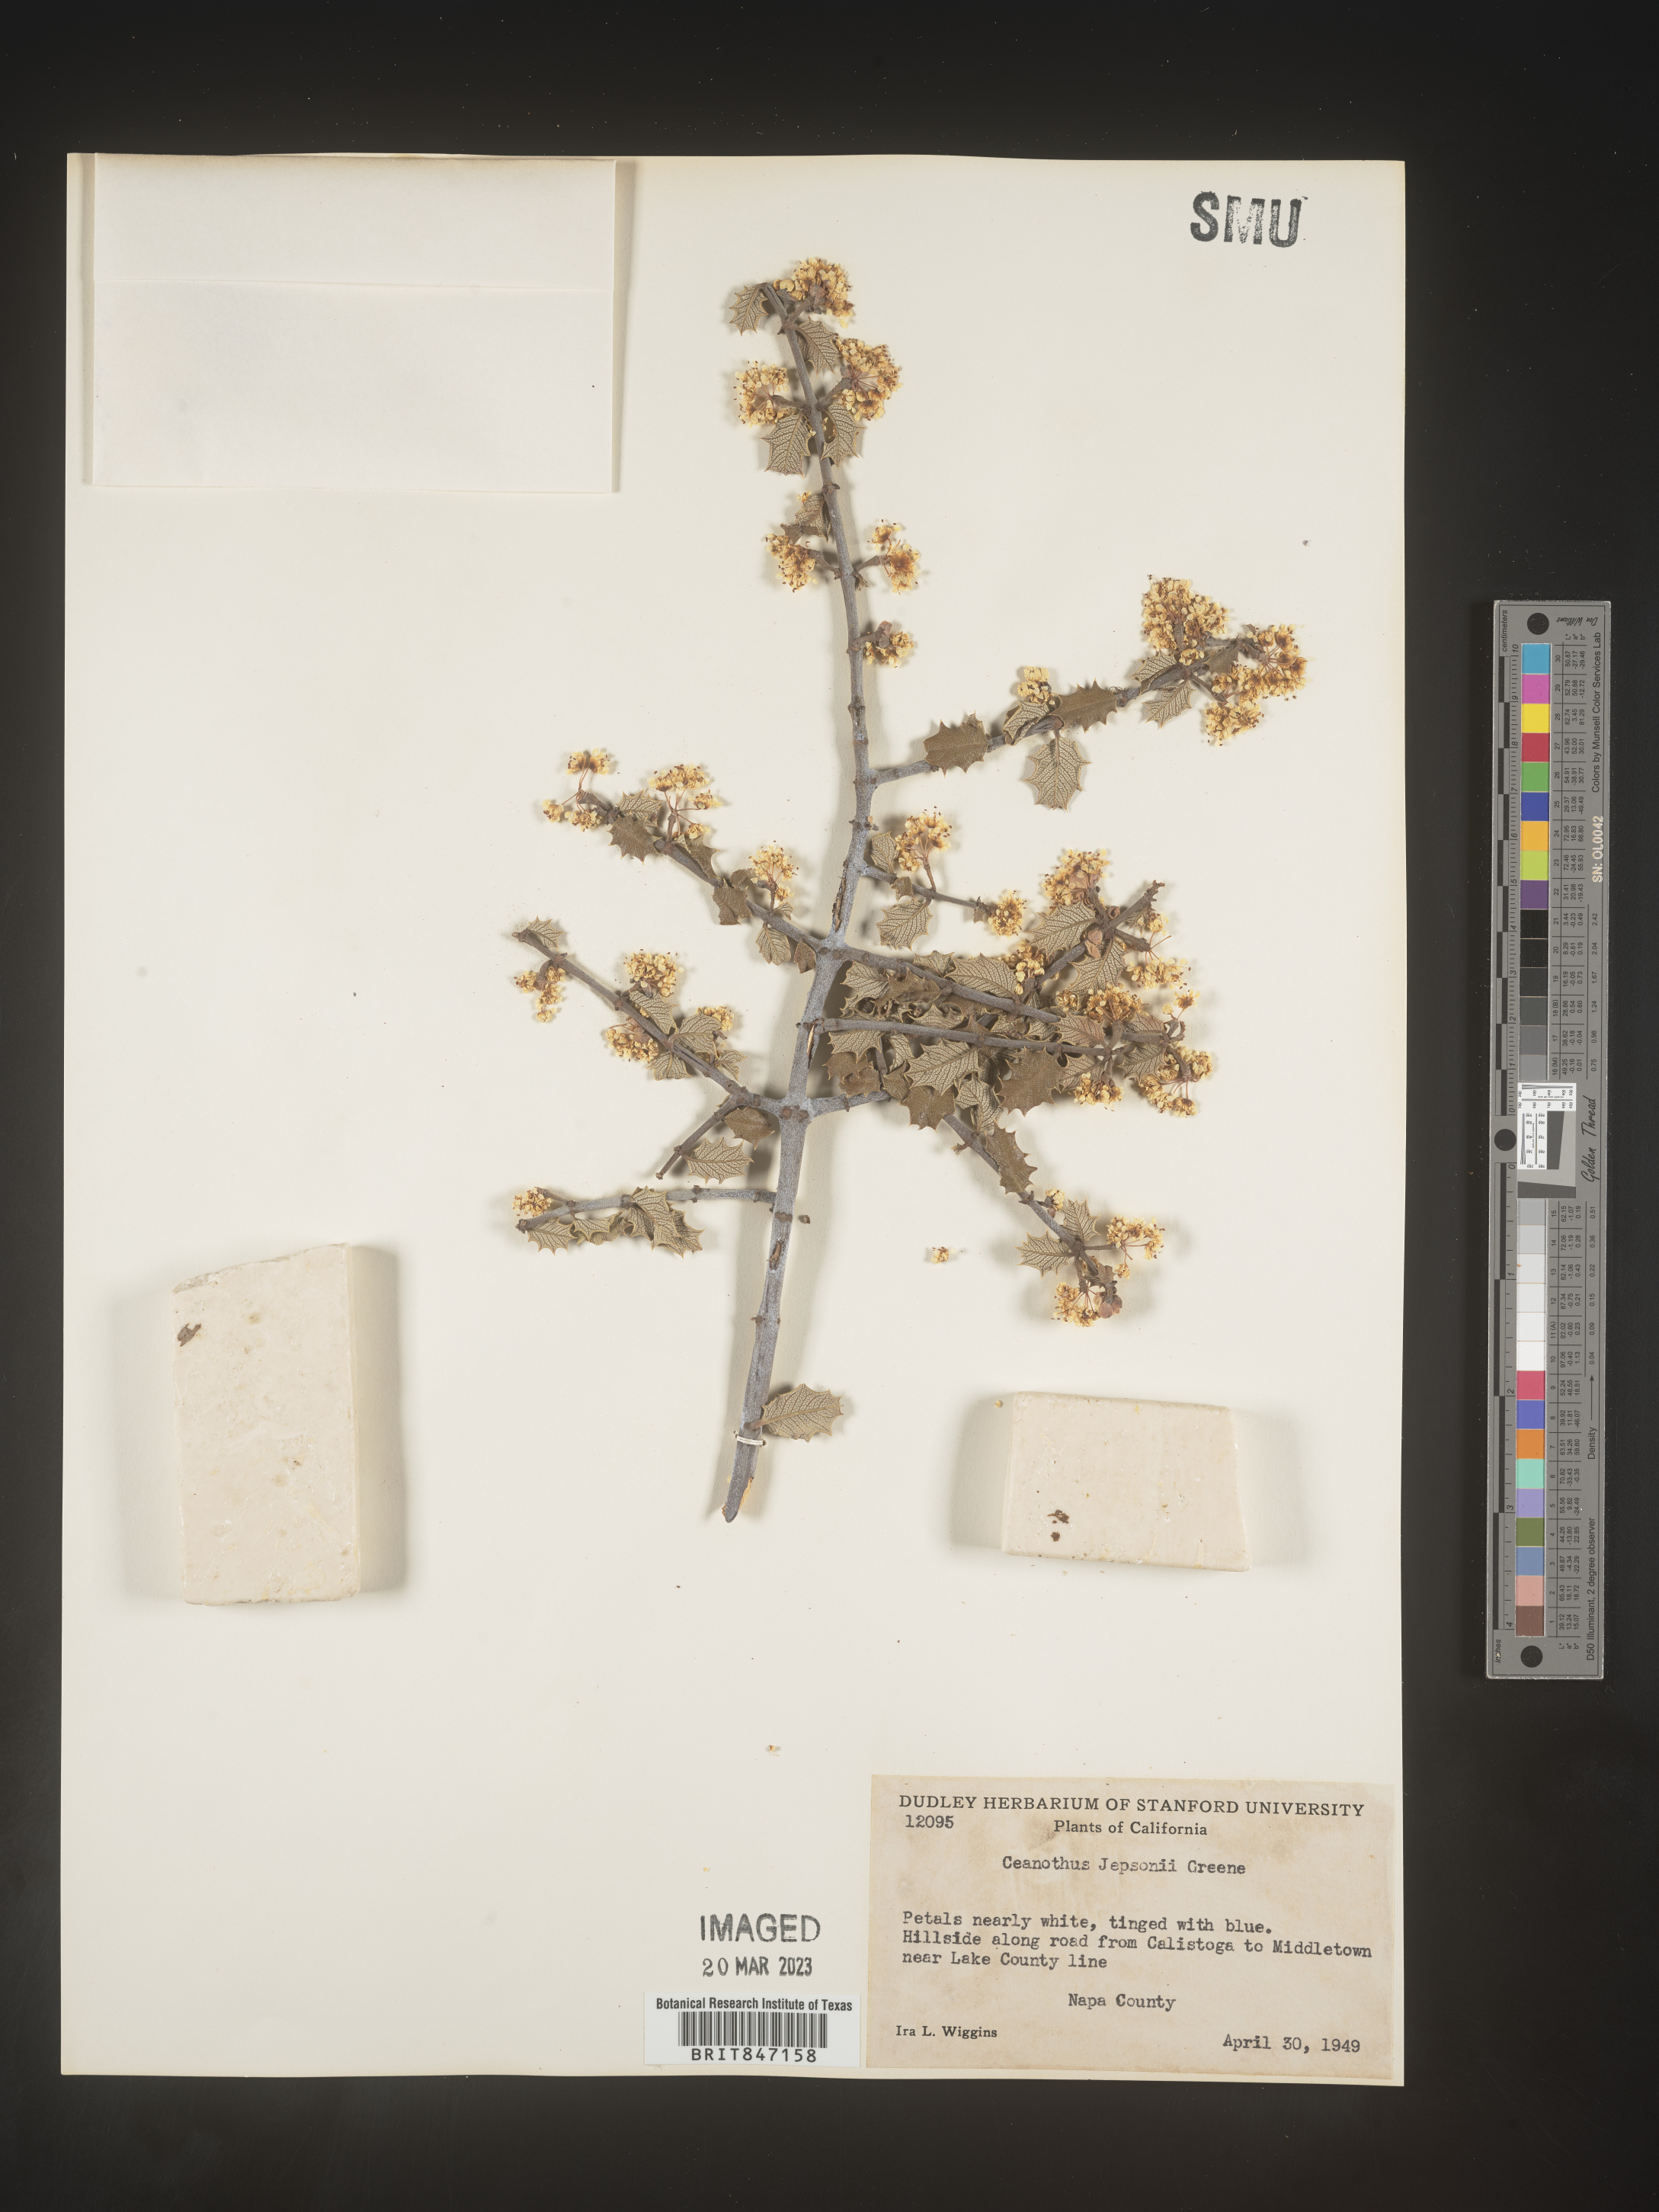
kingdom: Plantae
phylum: Tracheophyta
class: Magnoliopsida
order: Rosales
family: Rhamnaceae
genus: Ceanothus
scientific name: Ceanothus
